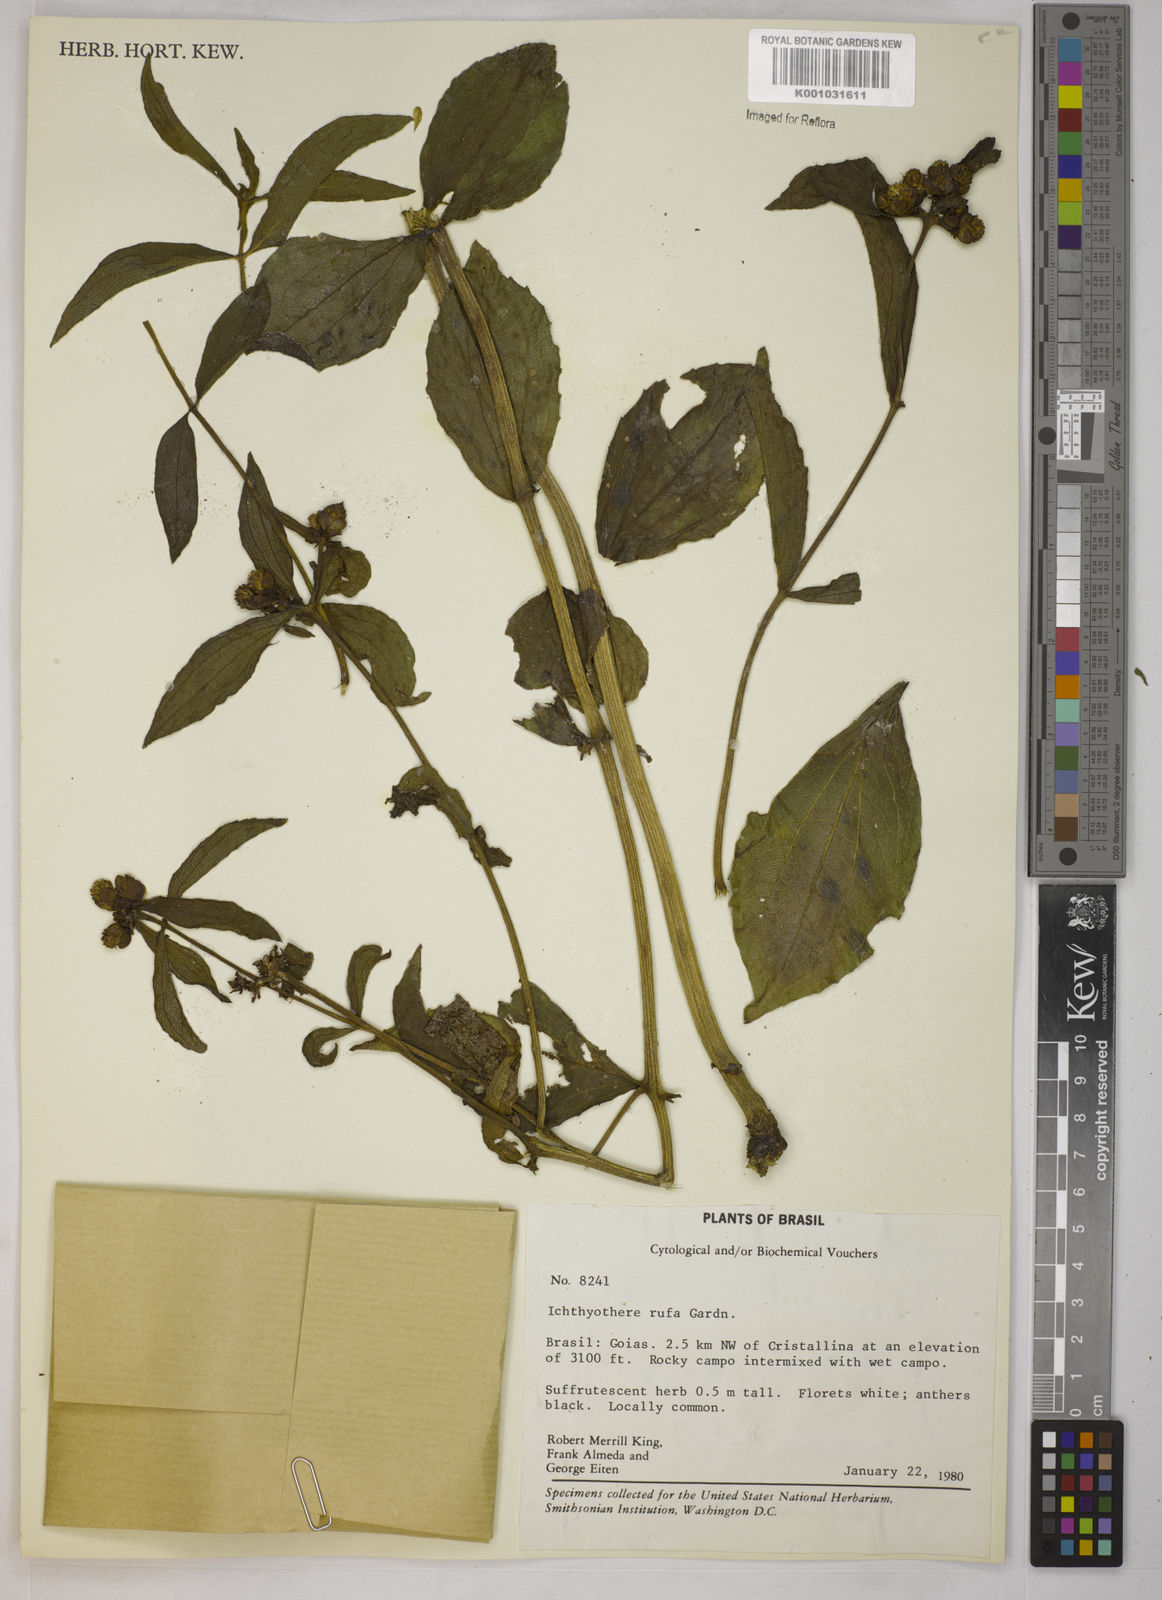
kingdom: Plantae
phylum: Tracheophyta
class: Magnoliopsida
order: Asterales
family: Asteraceae
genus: Ichthyothere
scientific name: Ichthyothere rufa
